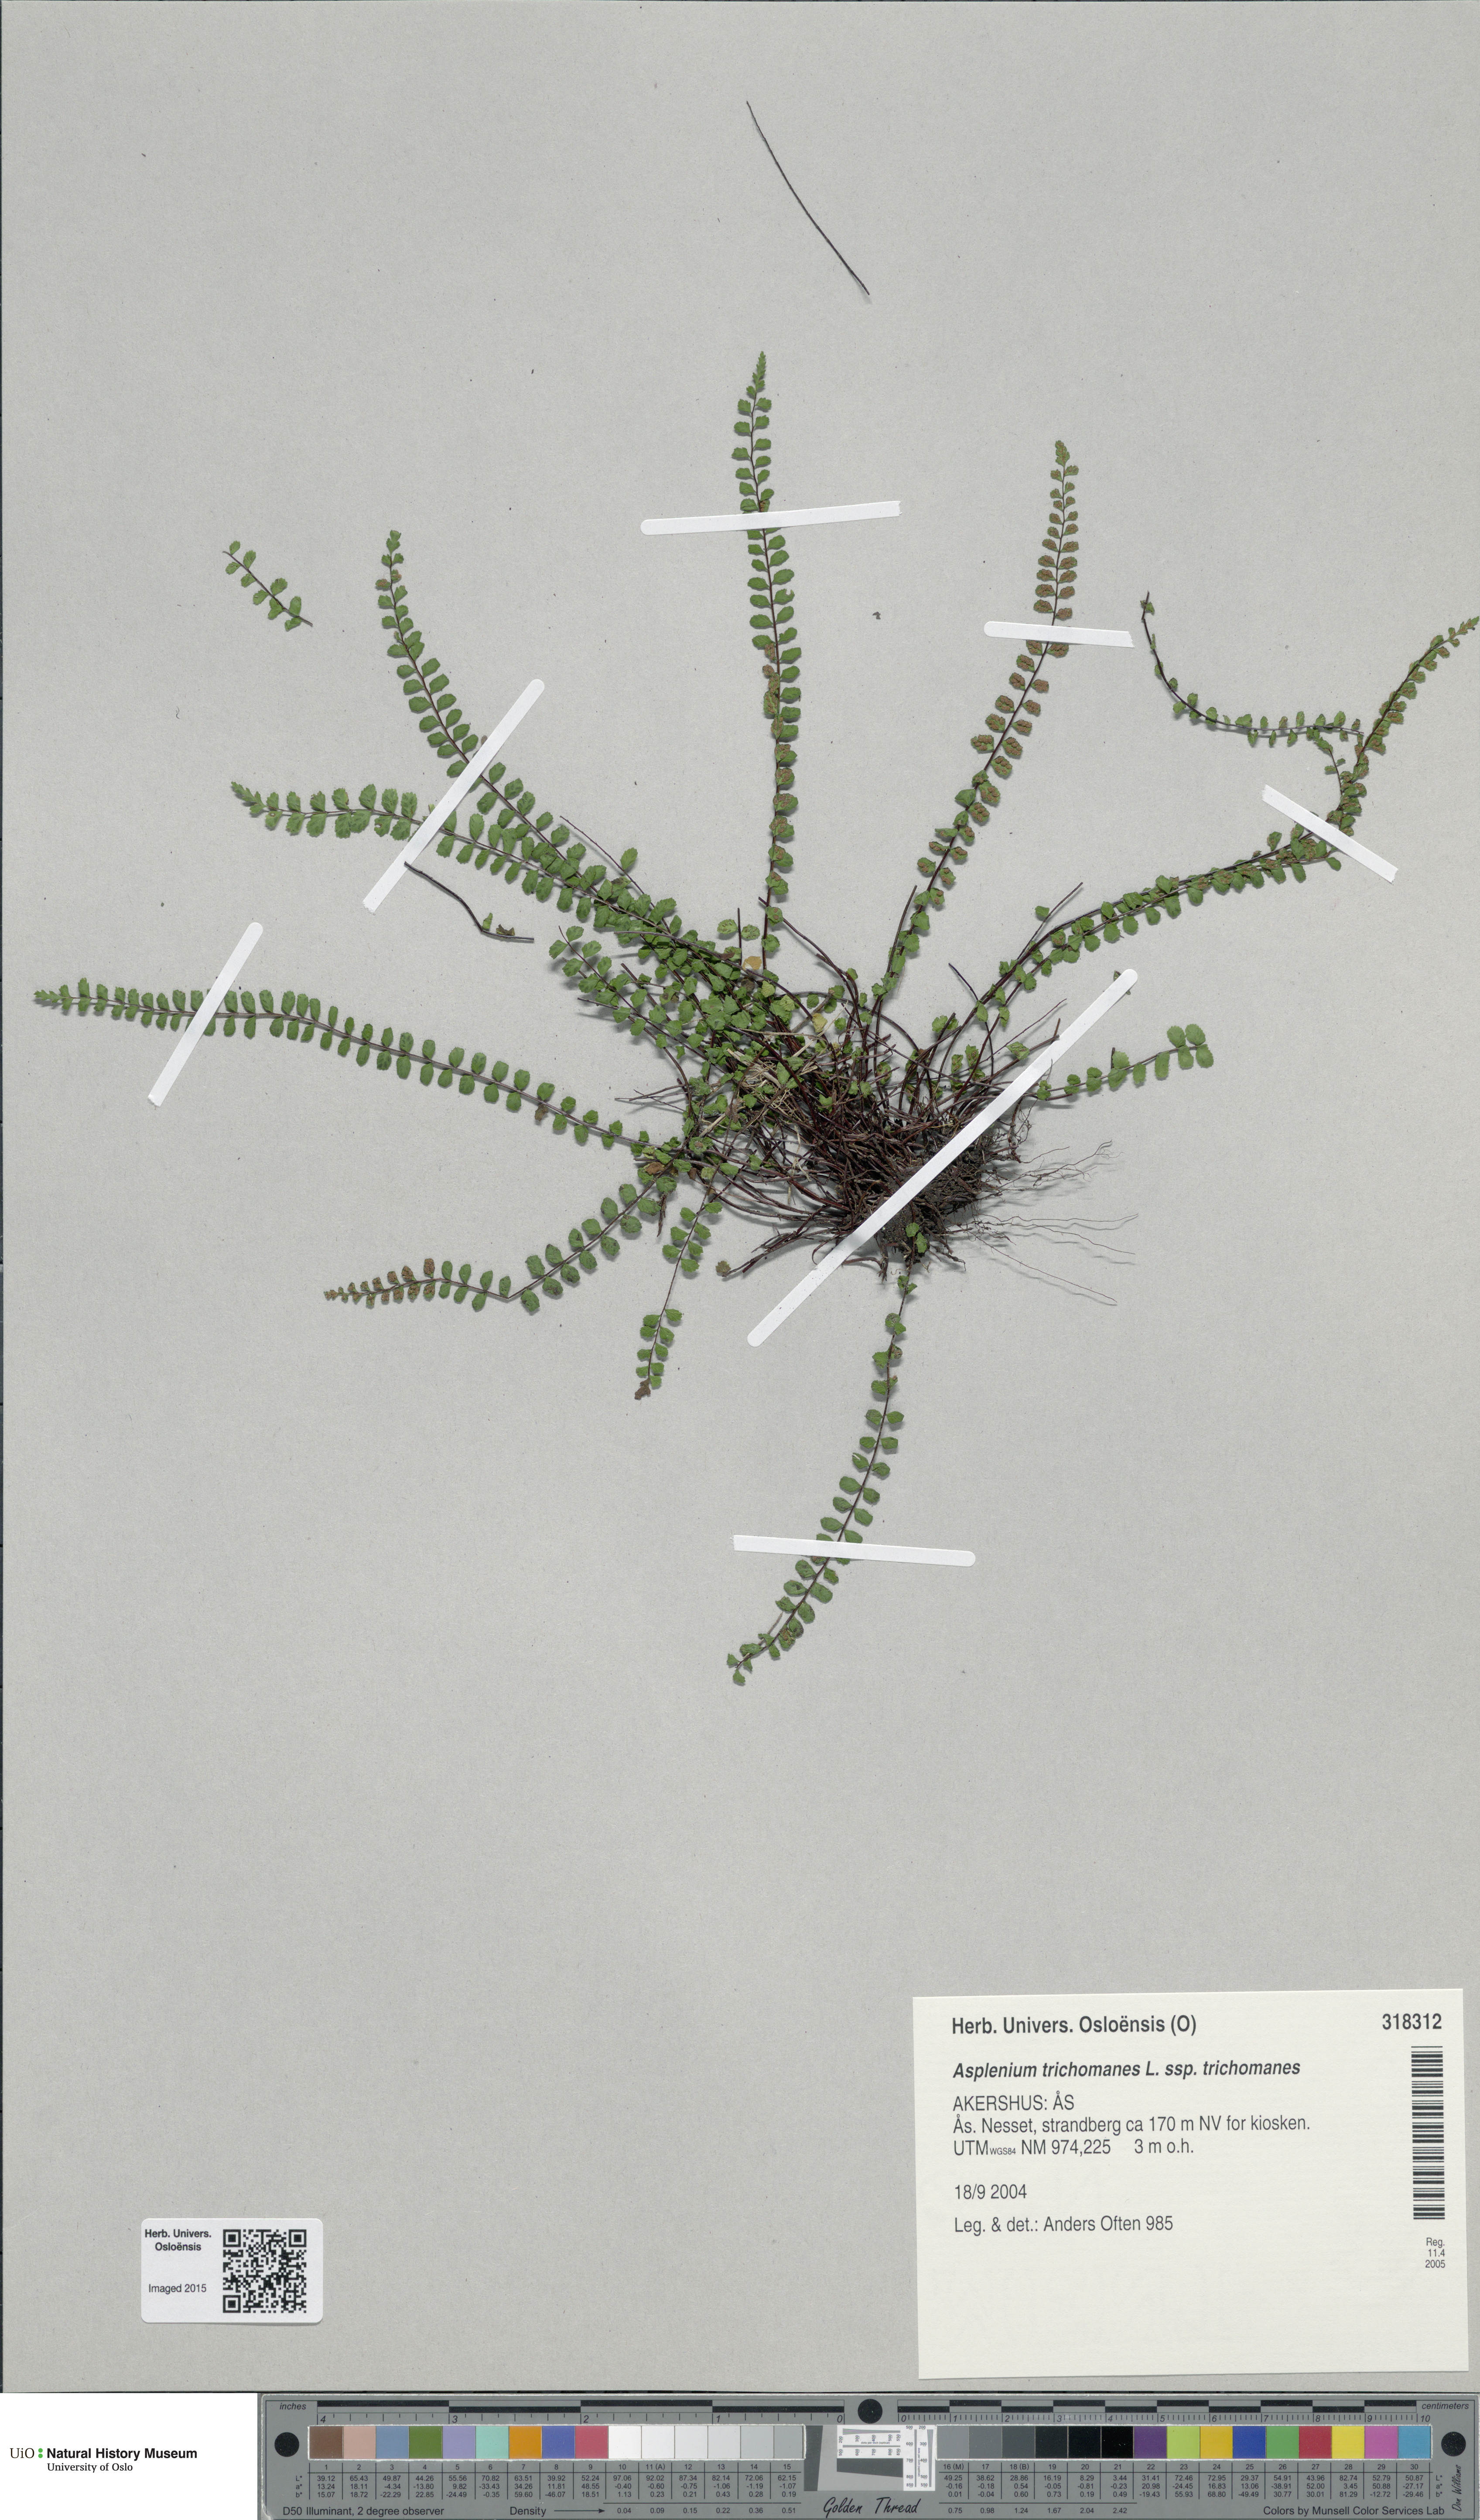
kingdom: Plantae
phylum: Tracheophyta
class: Polypodiopsida
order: Polypodiales
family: Aspleniaceae
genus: Asplenium
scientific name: Asplenium trichomanes
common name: Maidenhair spleenwort
